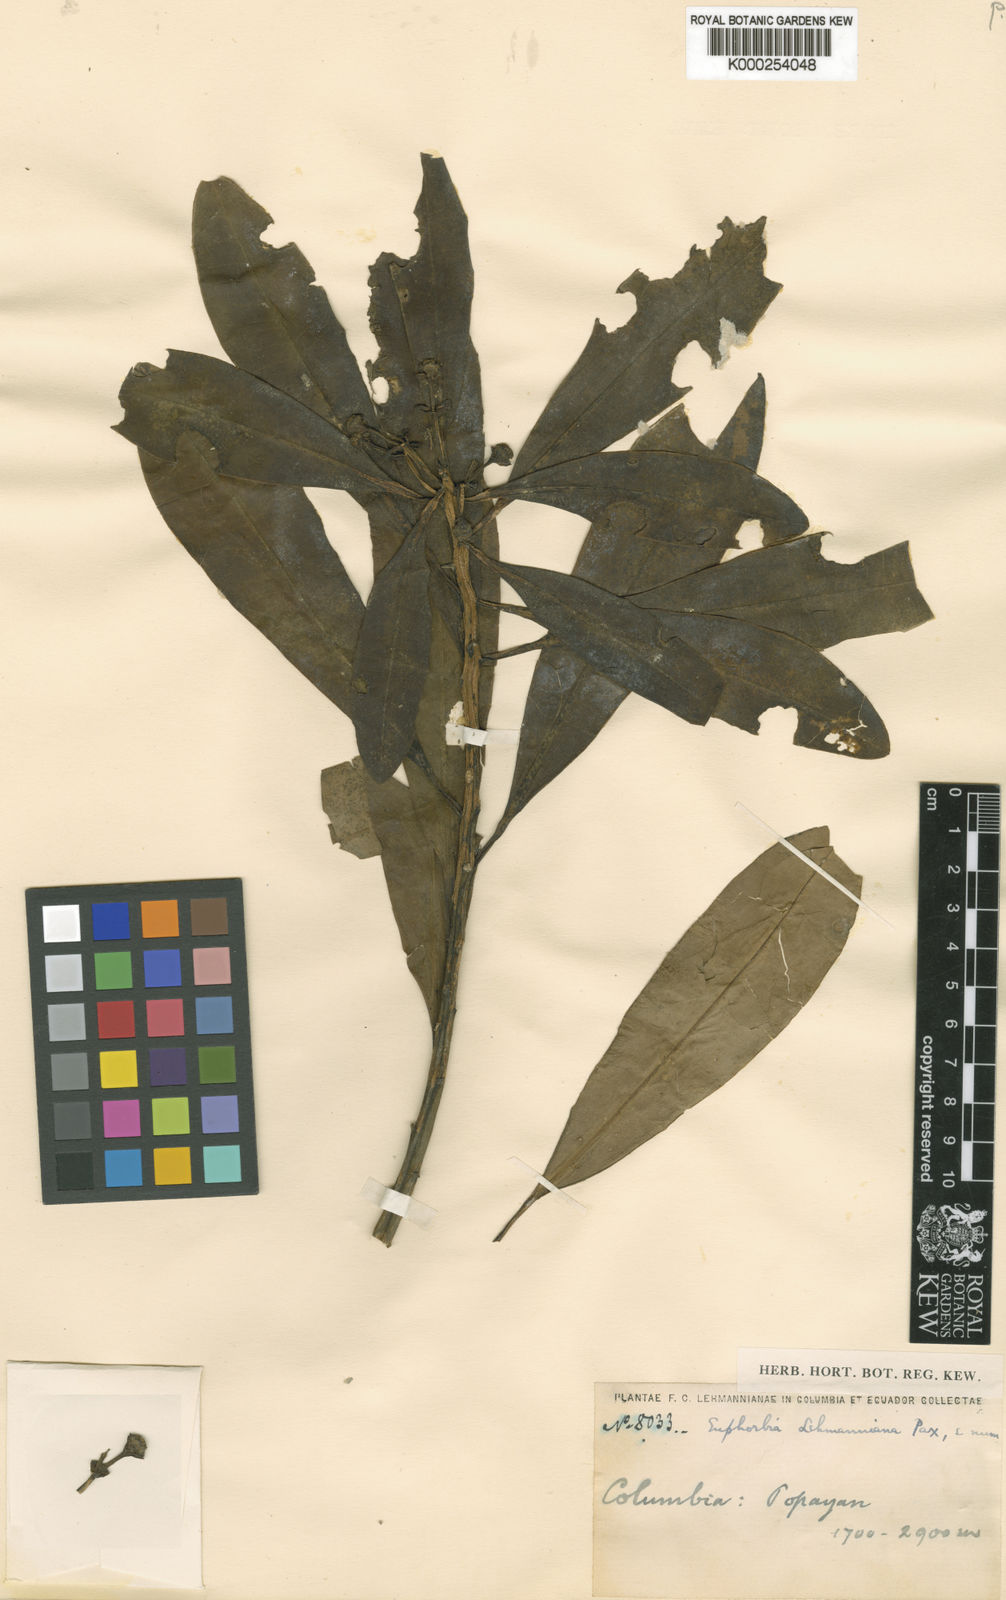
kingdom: Plantae
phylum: Tracheophyta
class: Magnoliopsida
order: Malpighiales
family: Euphorbiaceae
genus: Euphorbia
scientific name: Euphorbia laurifolia
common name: Lechero
